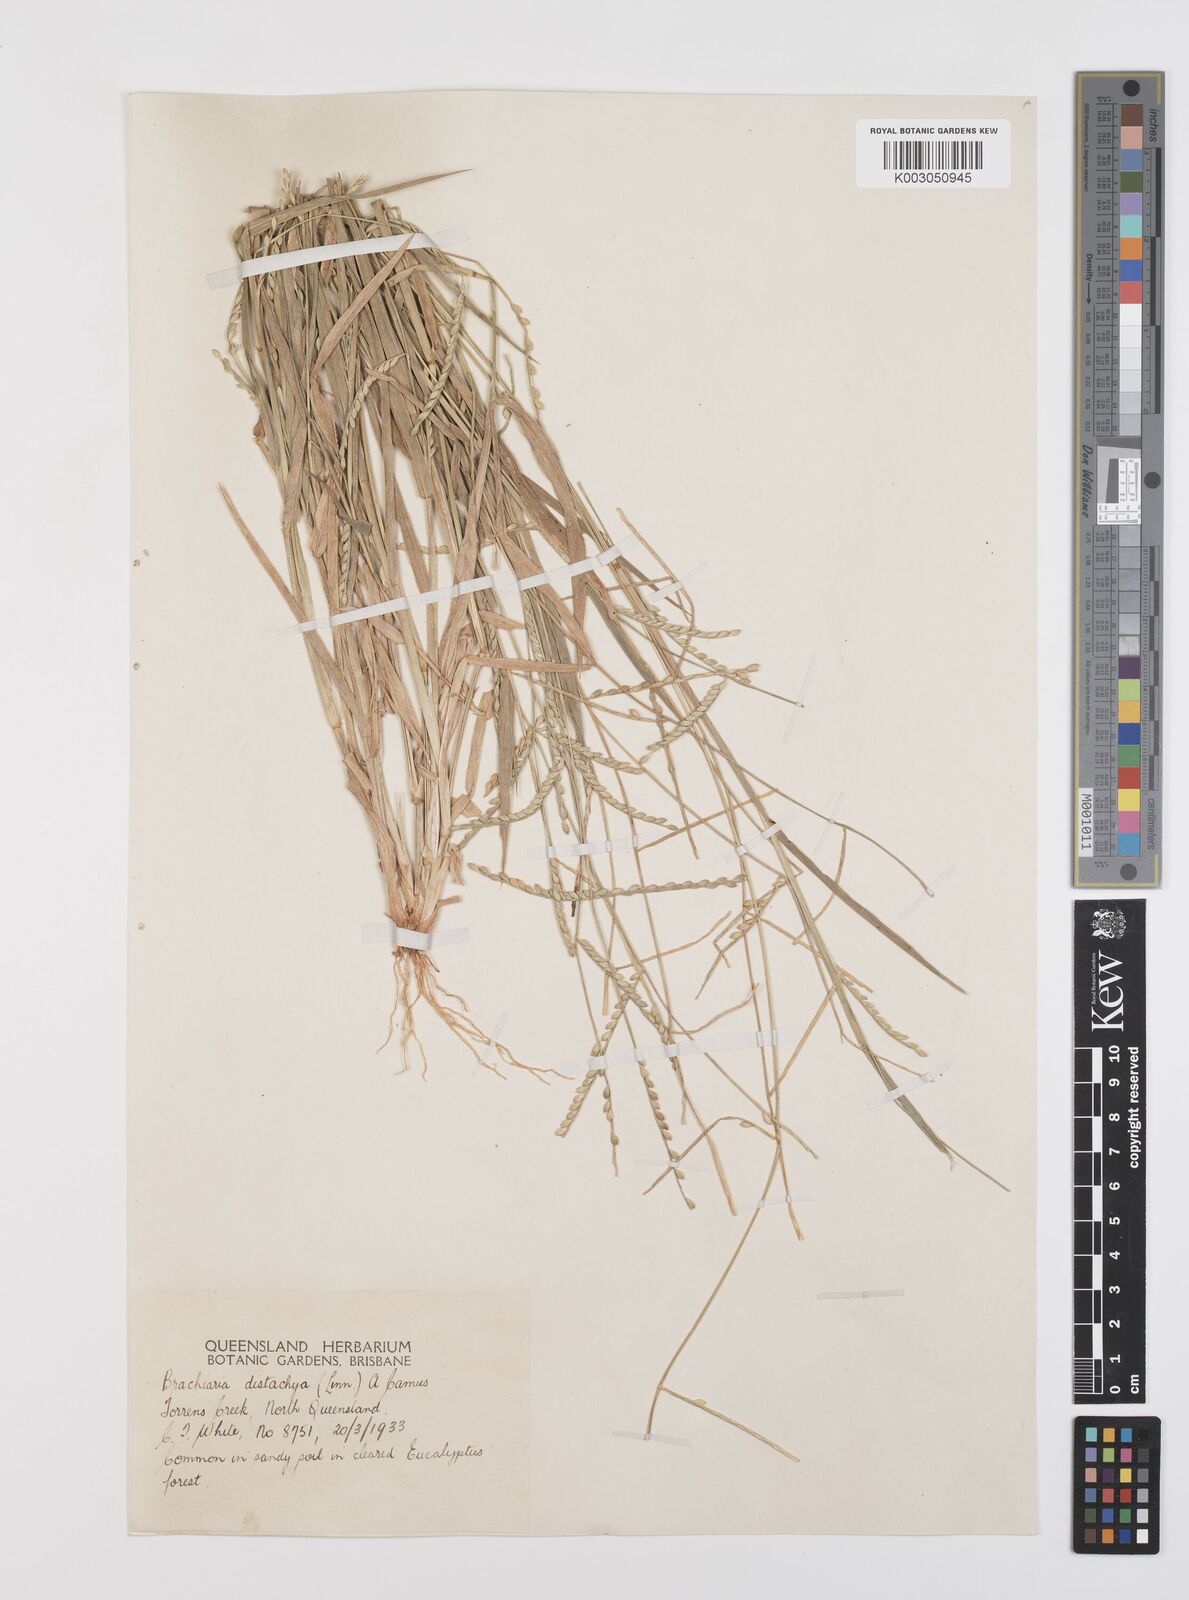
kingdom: Plantae
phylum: Tracheophyta
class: Liliopsida
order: Poales
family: Poaceae
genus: Urochloa
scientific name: Urochloa subquadripara
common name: Armgrass millet
